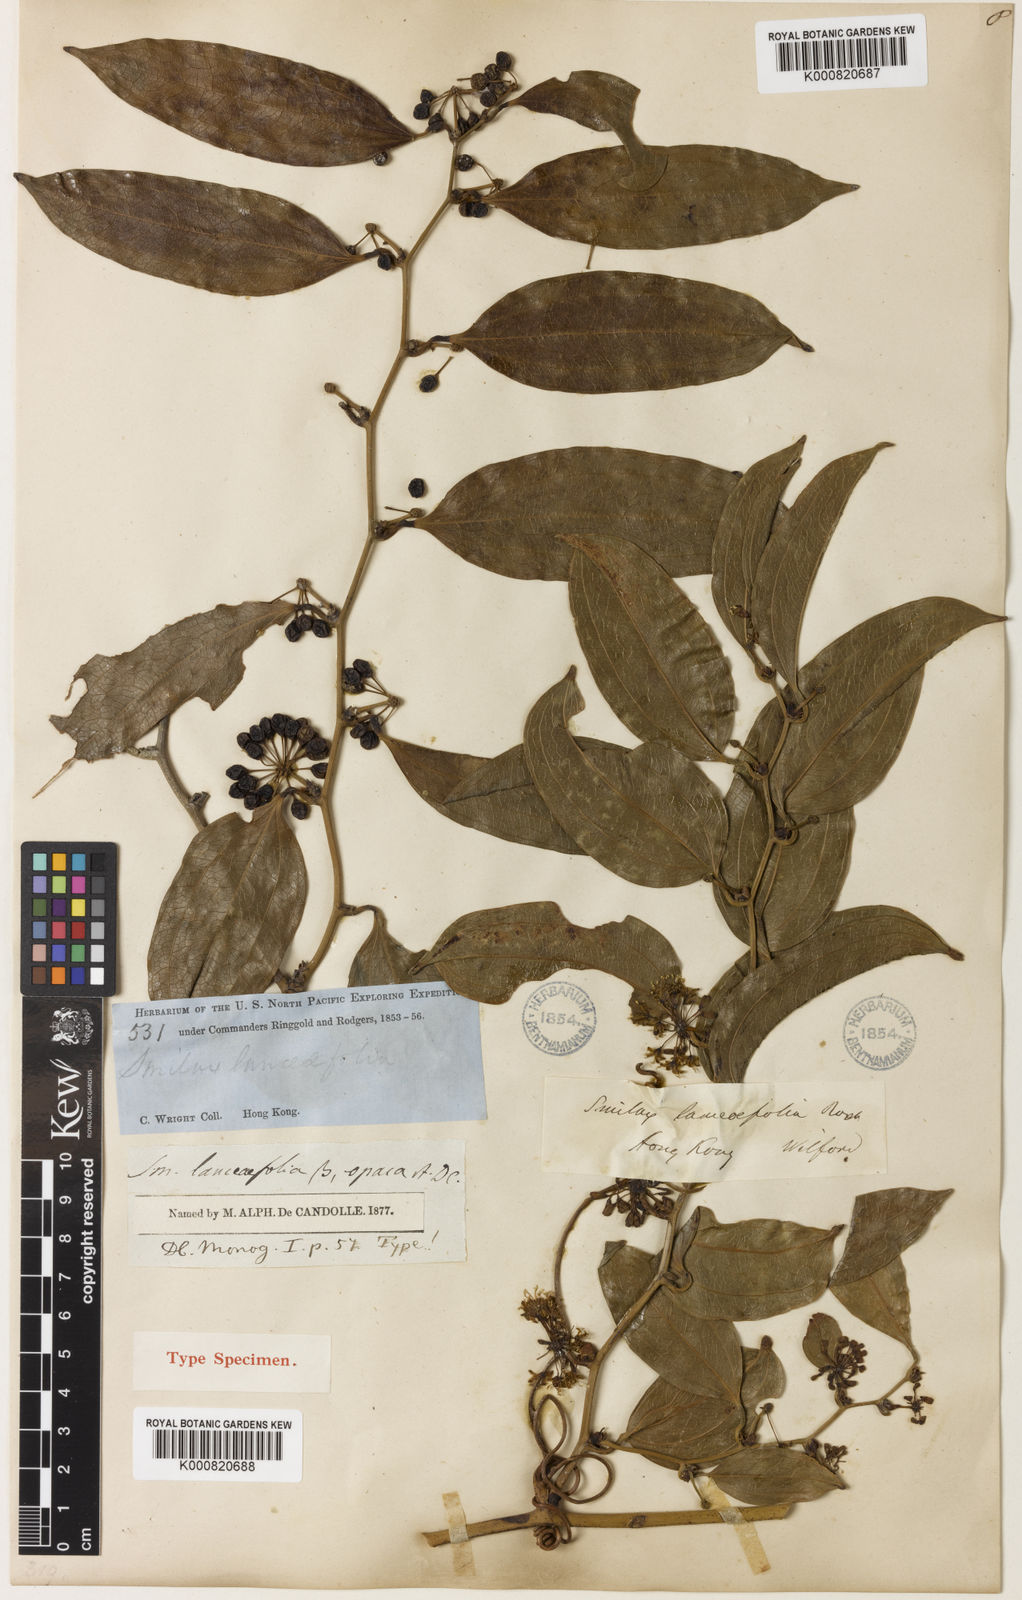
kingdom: Plantae
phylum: Tracheophyta
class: Liliopsida
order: Liliales
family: Smilacaceae
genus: Smilax
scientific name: Smilax laevis
